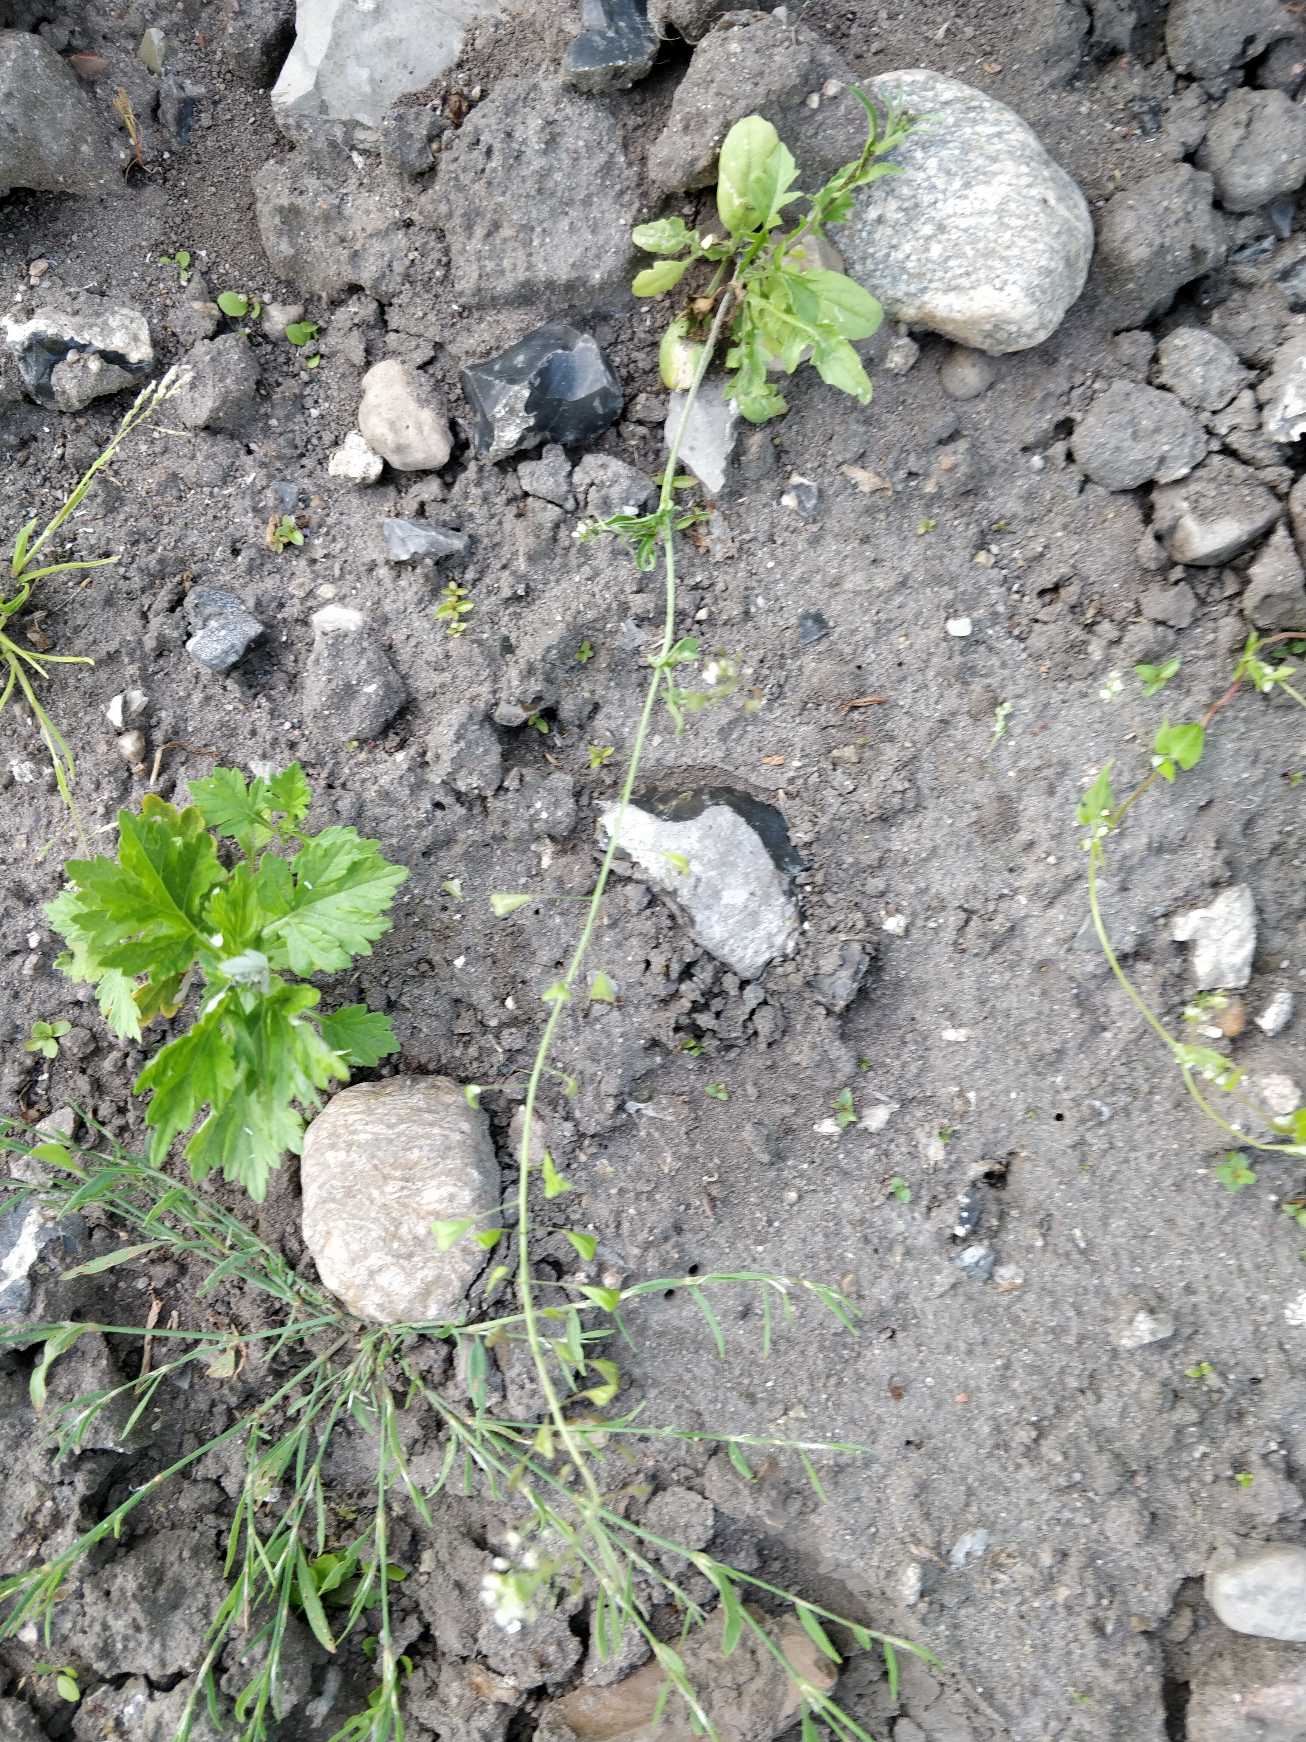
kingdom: Plantae
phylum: Tracheophyta
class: Magnoliopsida
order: Brassicales
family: Brassicaceae
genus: Capsella
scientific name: Capsella bursa-pastoris
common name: Hyrdetaske
